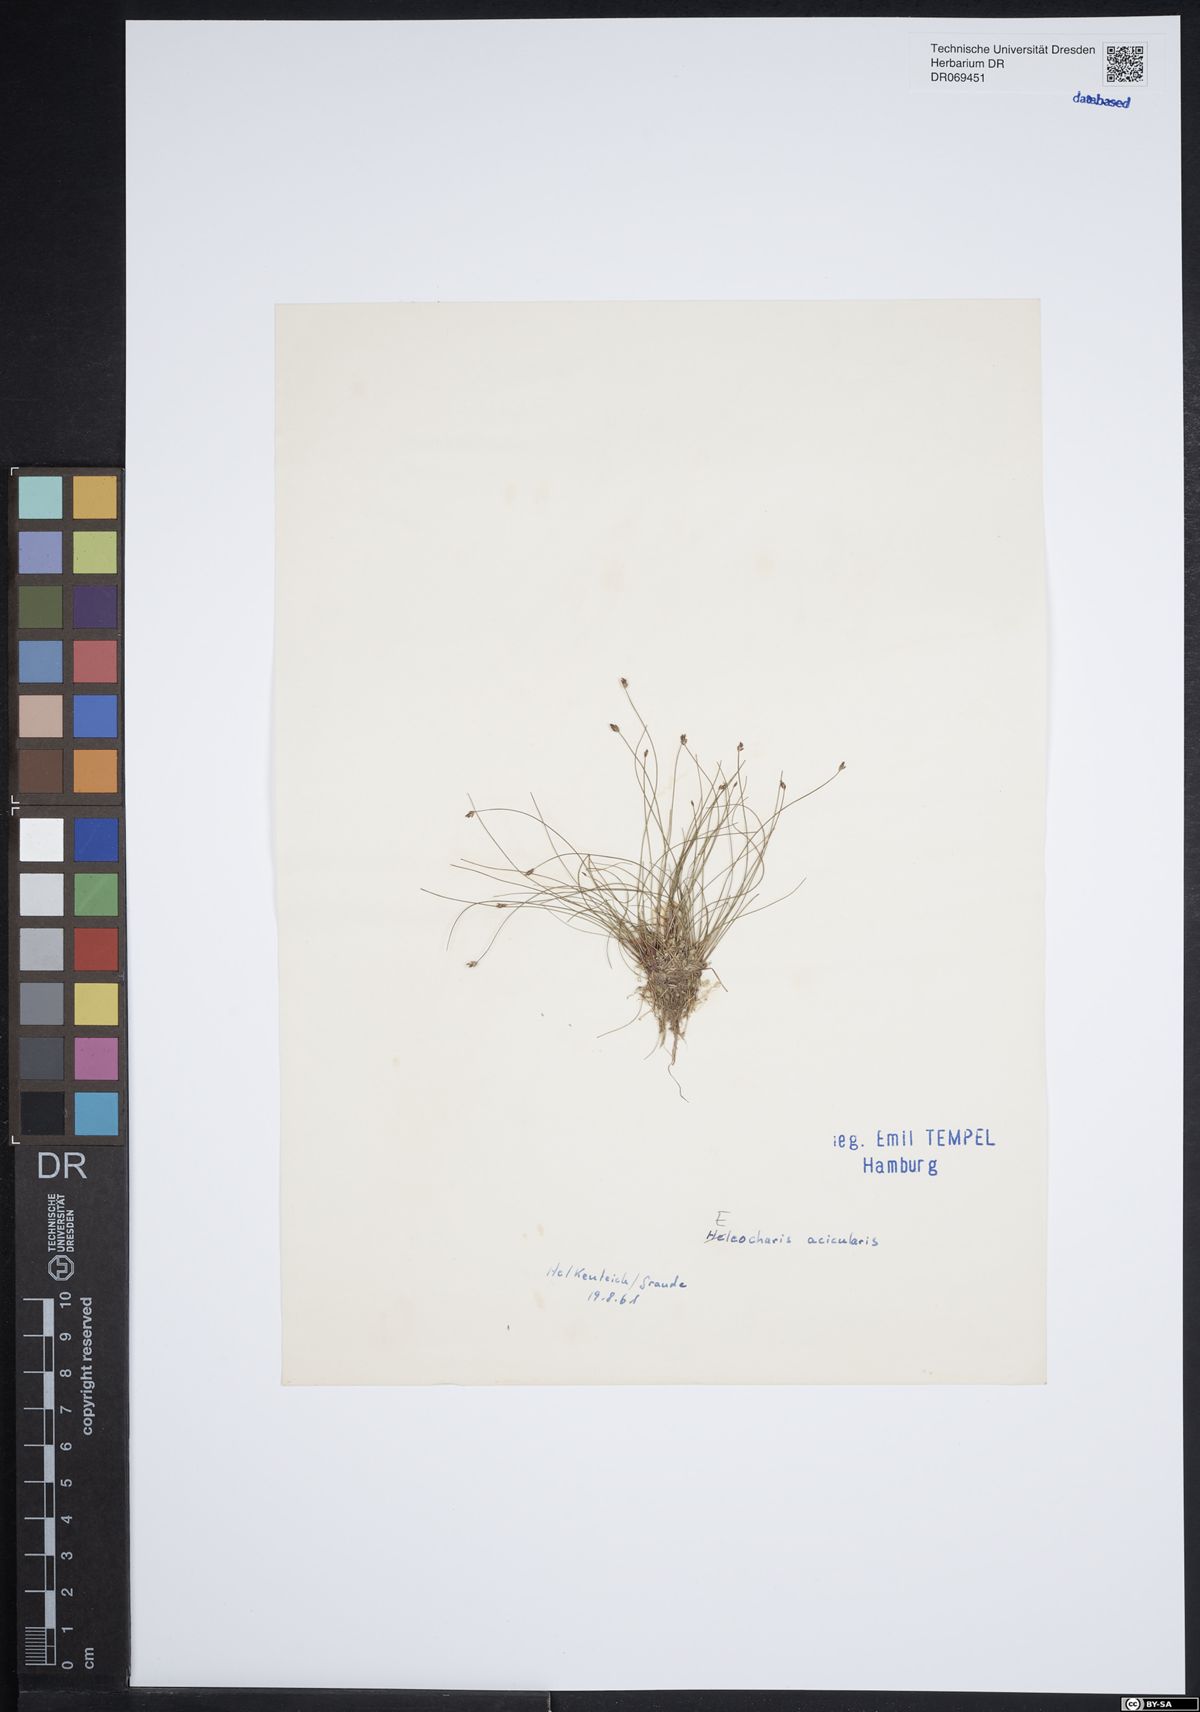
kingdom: Plantae
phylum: Tracheophyta
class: Liliopsida
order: Poales
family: Cyperaceae
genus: Eleocharis
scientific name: Eleocharis acicularis
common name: Needle spike-rush
